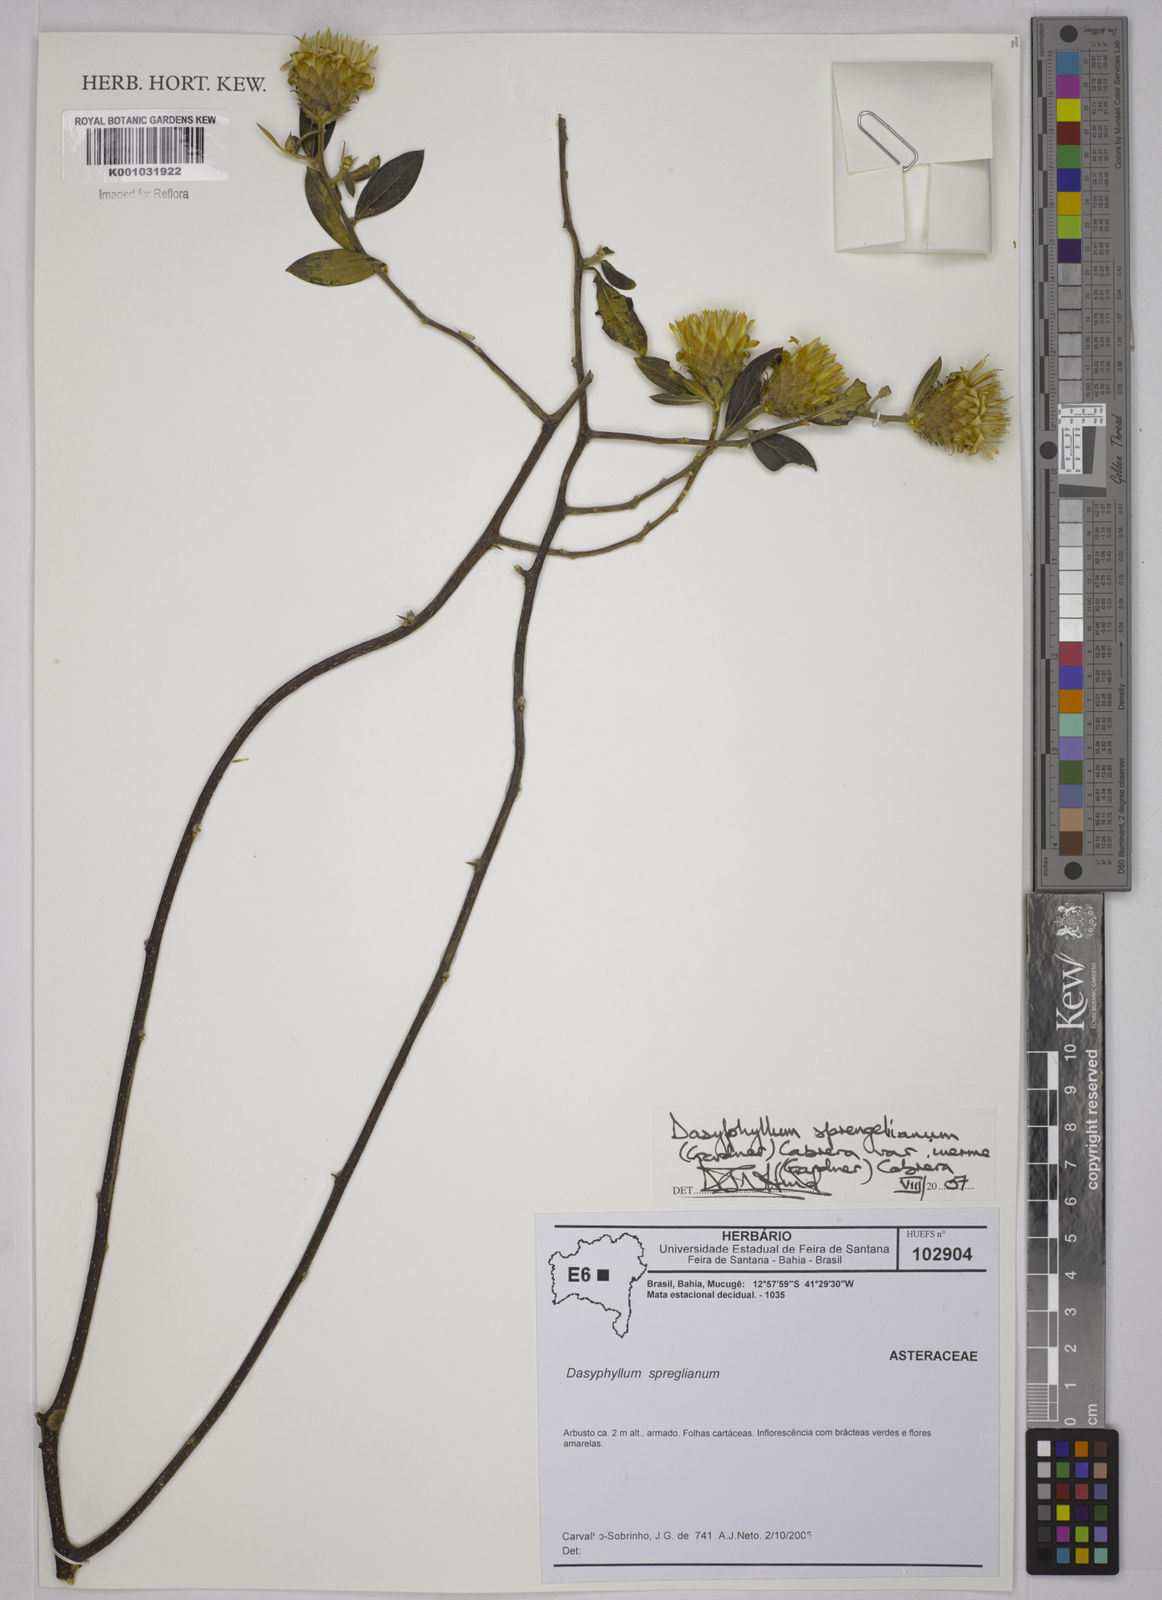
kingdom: Plantae
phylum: Tracheophyta
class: Magnoliopsida
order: Asterales
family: Asteraceae
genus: Dasyphyllum
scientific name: Dasyphyllum sprengelianum
